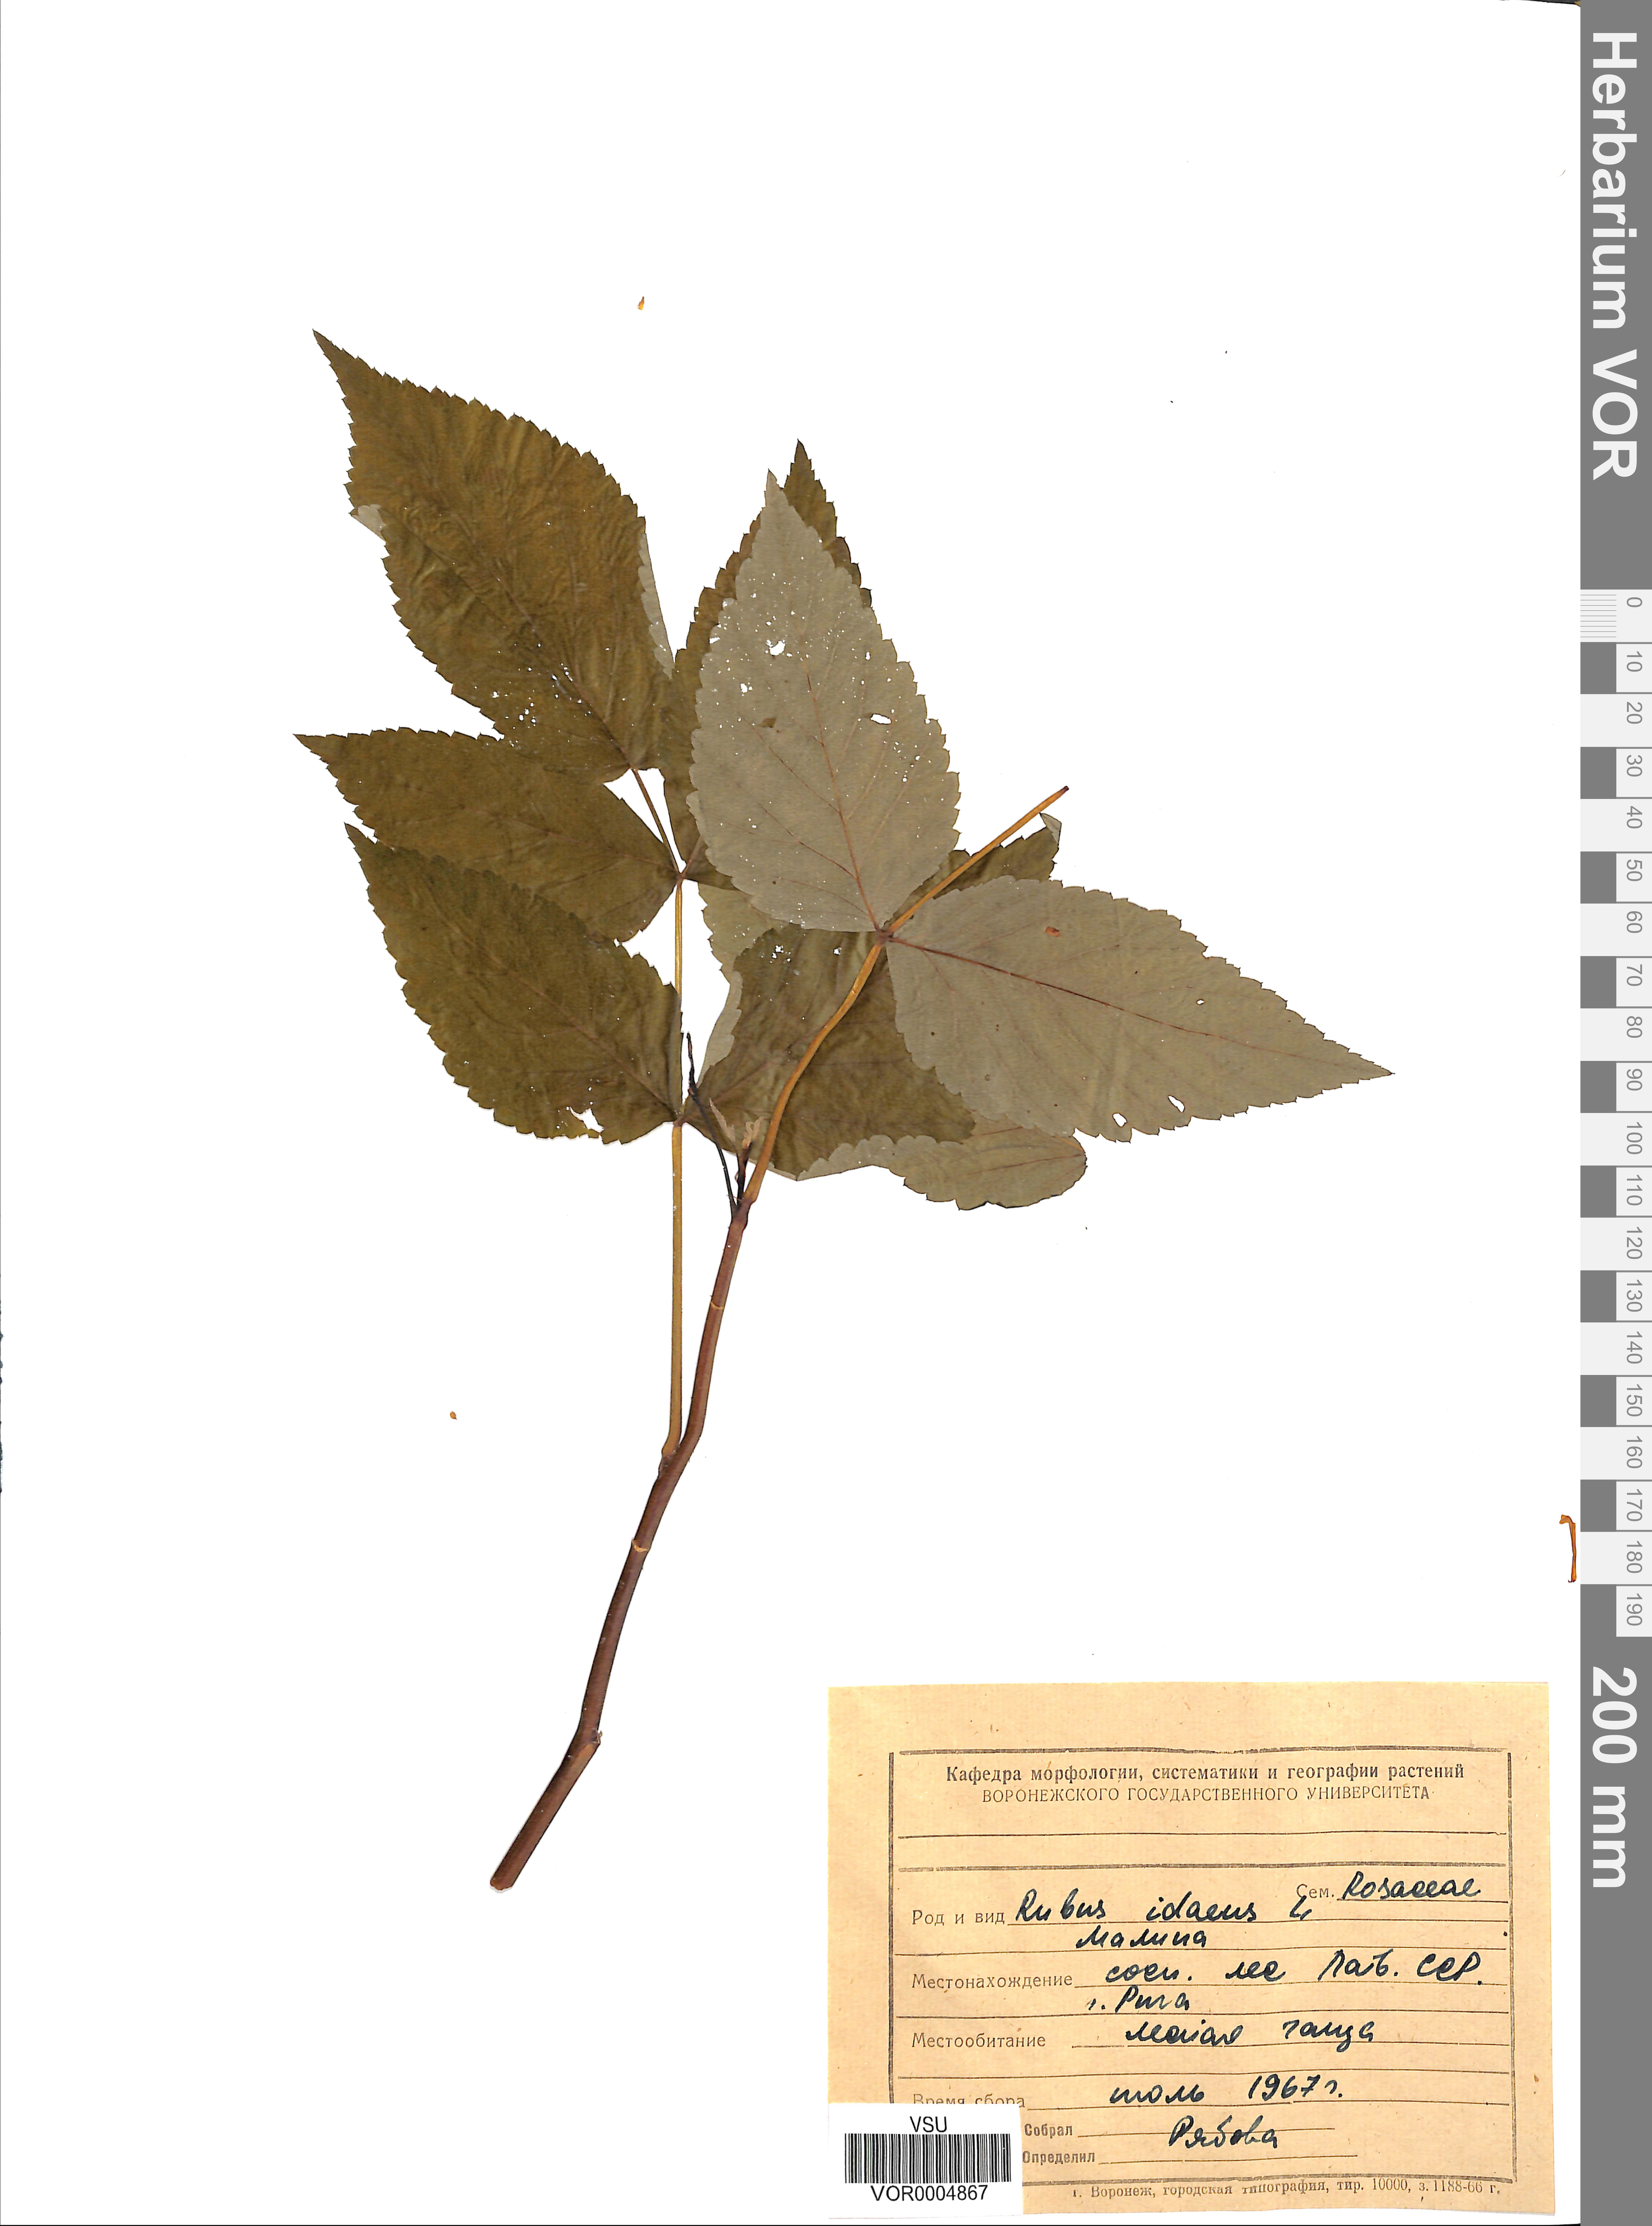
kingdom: Plantae
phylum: Tracheophyta
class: Magnoliopsida
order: Rosales
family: Rosaceae
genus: Rubus
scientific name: Rubus idaeus
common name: Raspberry
